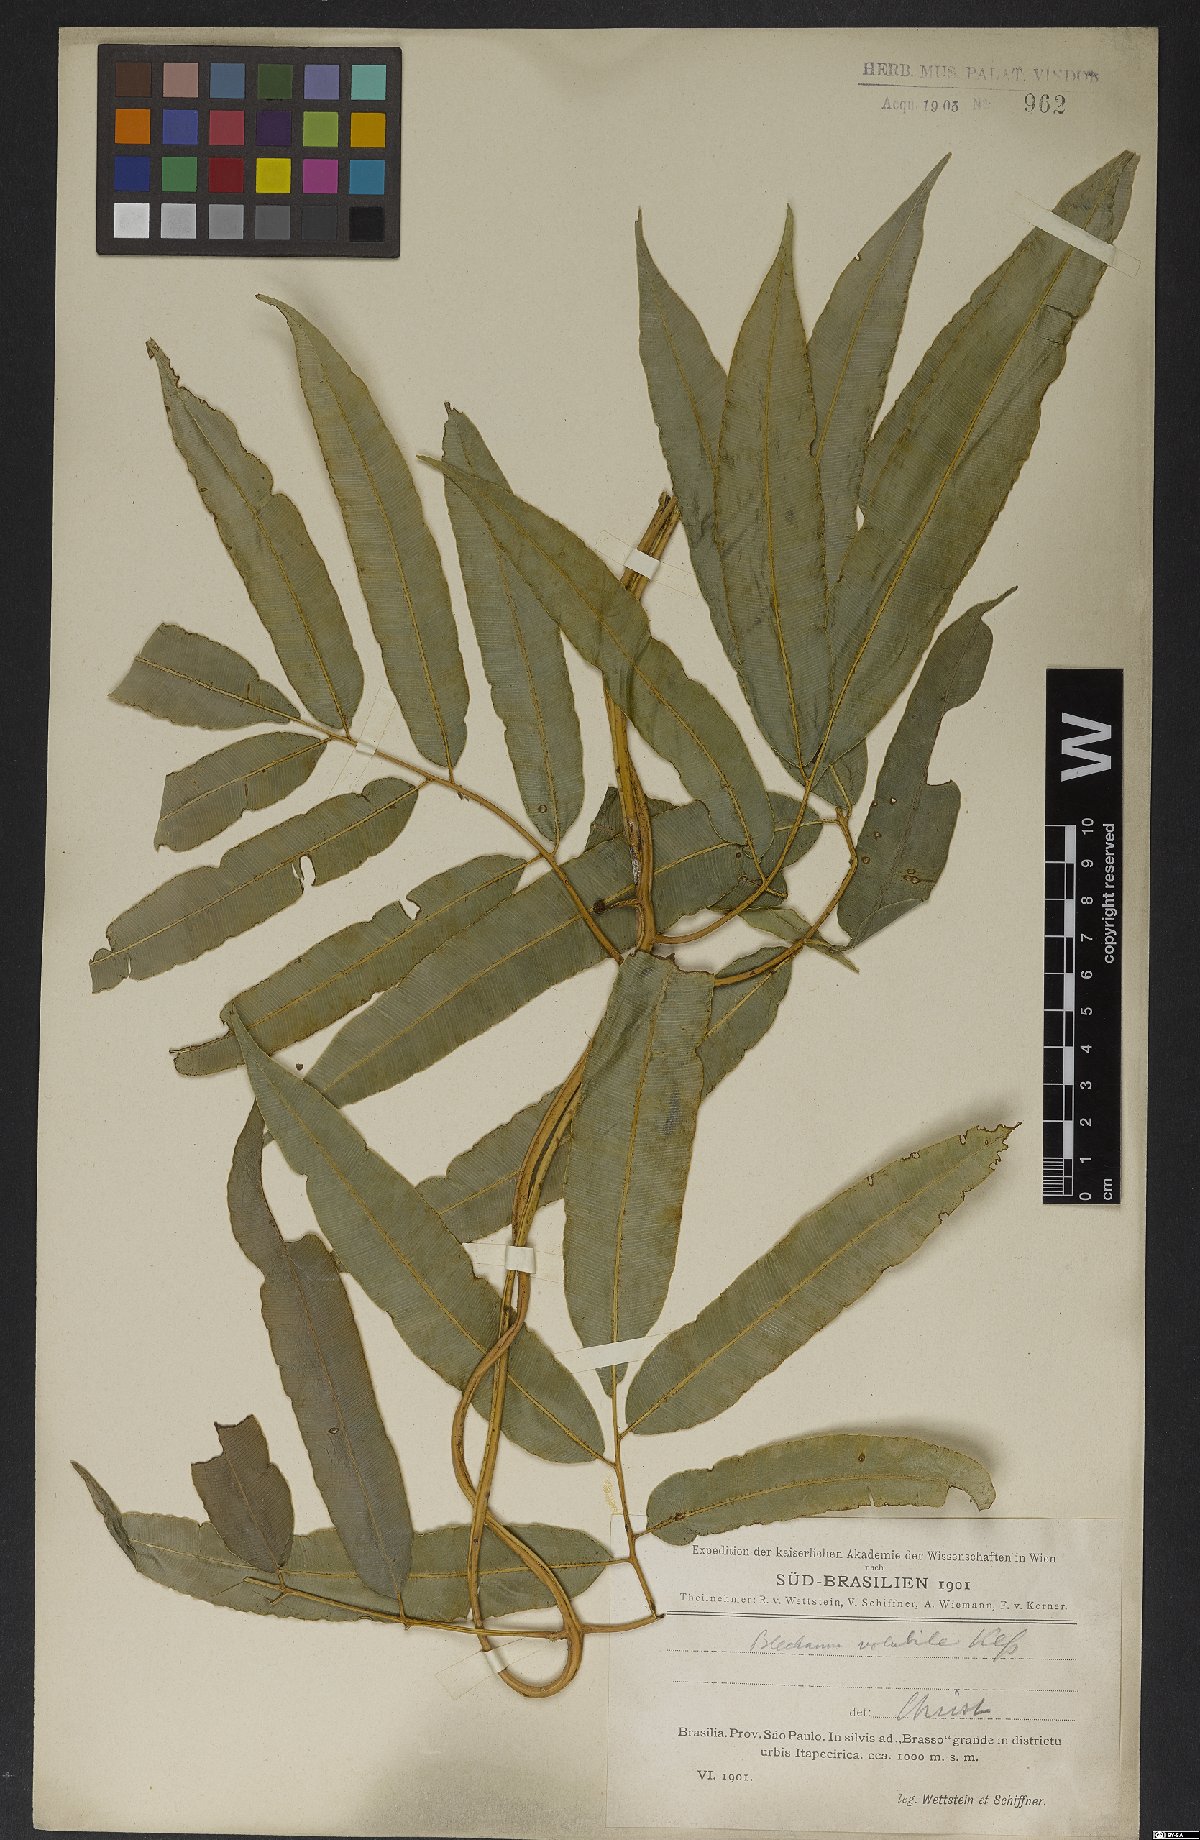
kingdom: Plantae
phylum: Tracheophyta
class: Polypodiopsida
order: Polypodiales
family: Blechnaceae
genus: Salpichlaena
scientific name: Salpichlaena volubilis
